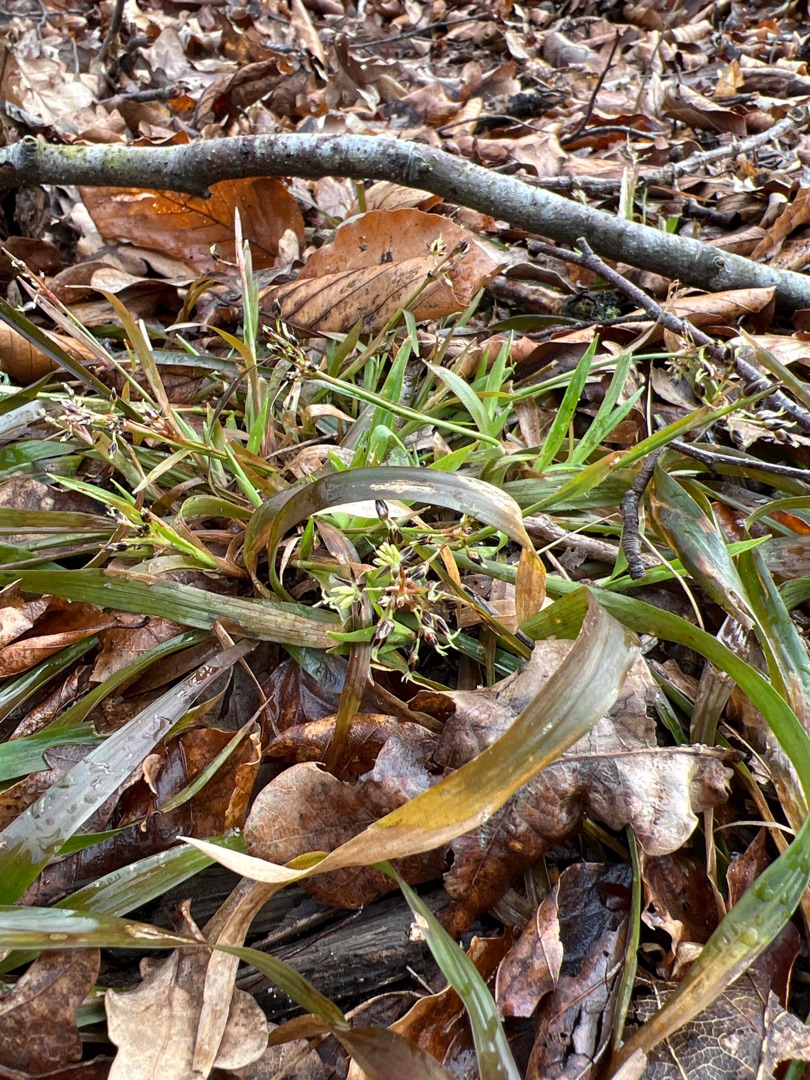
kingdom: Plantae
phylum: Tracheophyta
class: Liliopsida
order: Poales
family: Juncaceae
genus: Luzula
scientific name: Luzula pilosa
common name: Håret frytle
